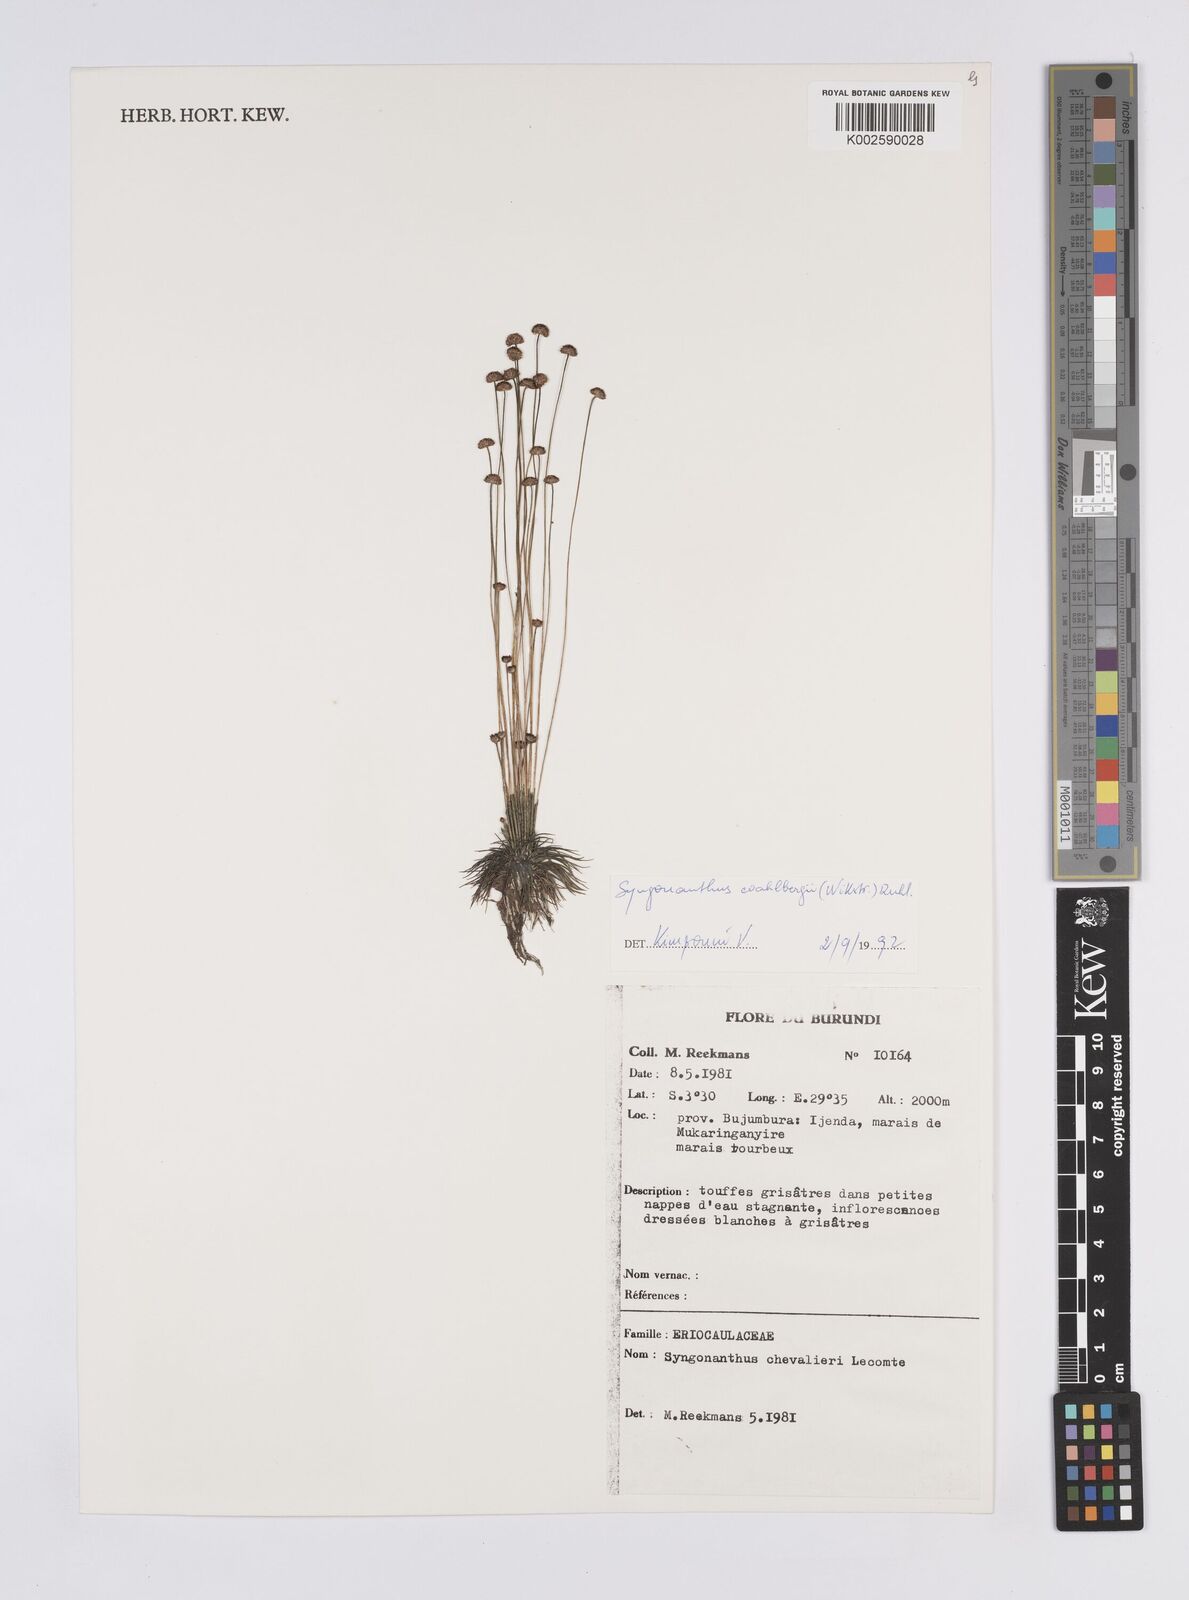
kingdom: Plantae
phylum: Tracheophyta
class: Liliopsida
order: Poales
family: Eriocaulaceae
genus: Syngonanthus
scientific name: Syngonanthus wahlbergii
